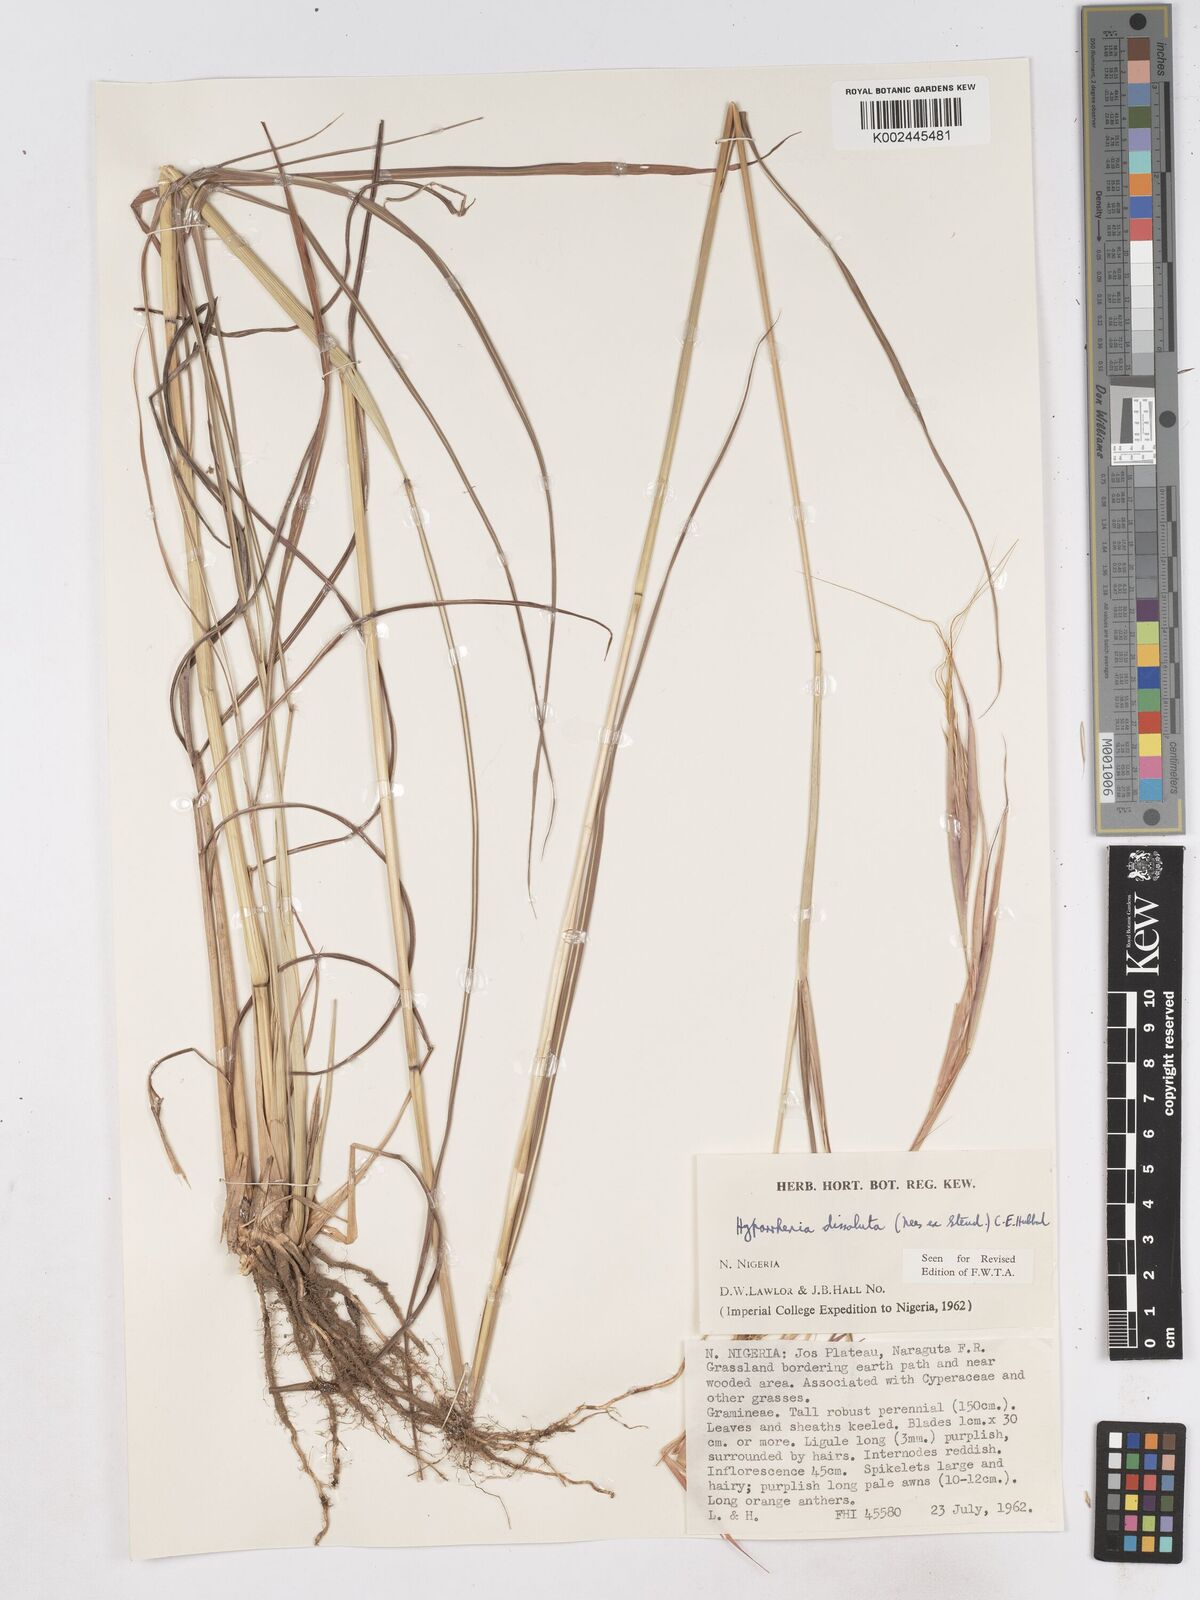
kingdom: Plantae
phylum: Tracheophyta
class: Liliopsida
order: Poales
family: Poaceae
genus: Hyperthelia
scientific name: Hyperthelia dissoluta
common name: Yellow thatching grass
